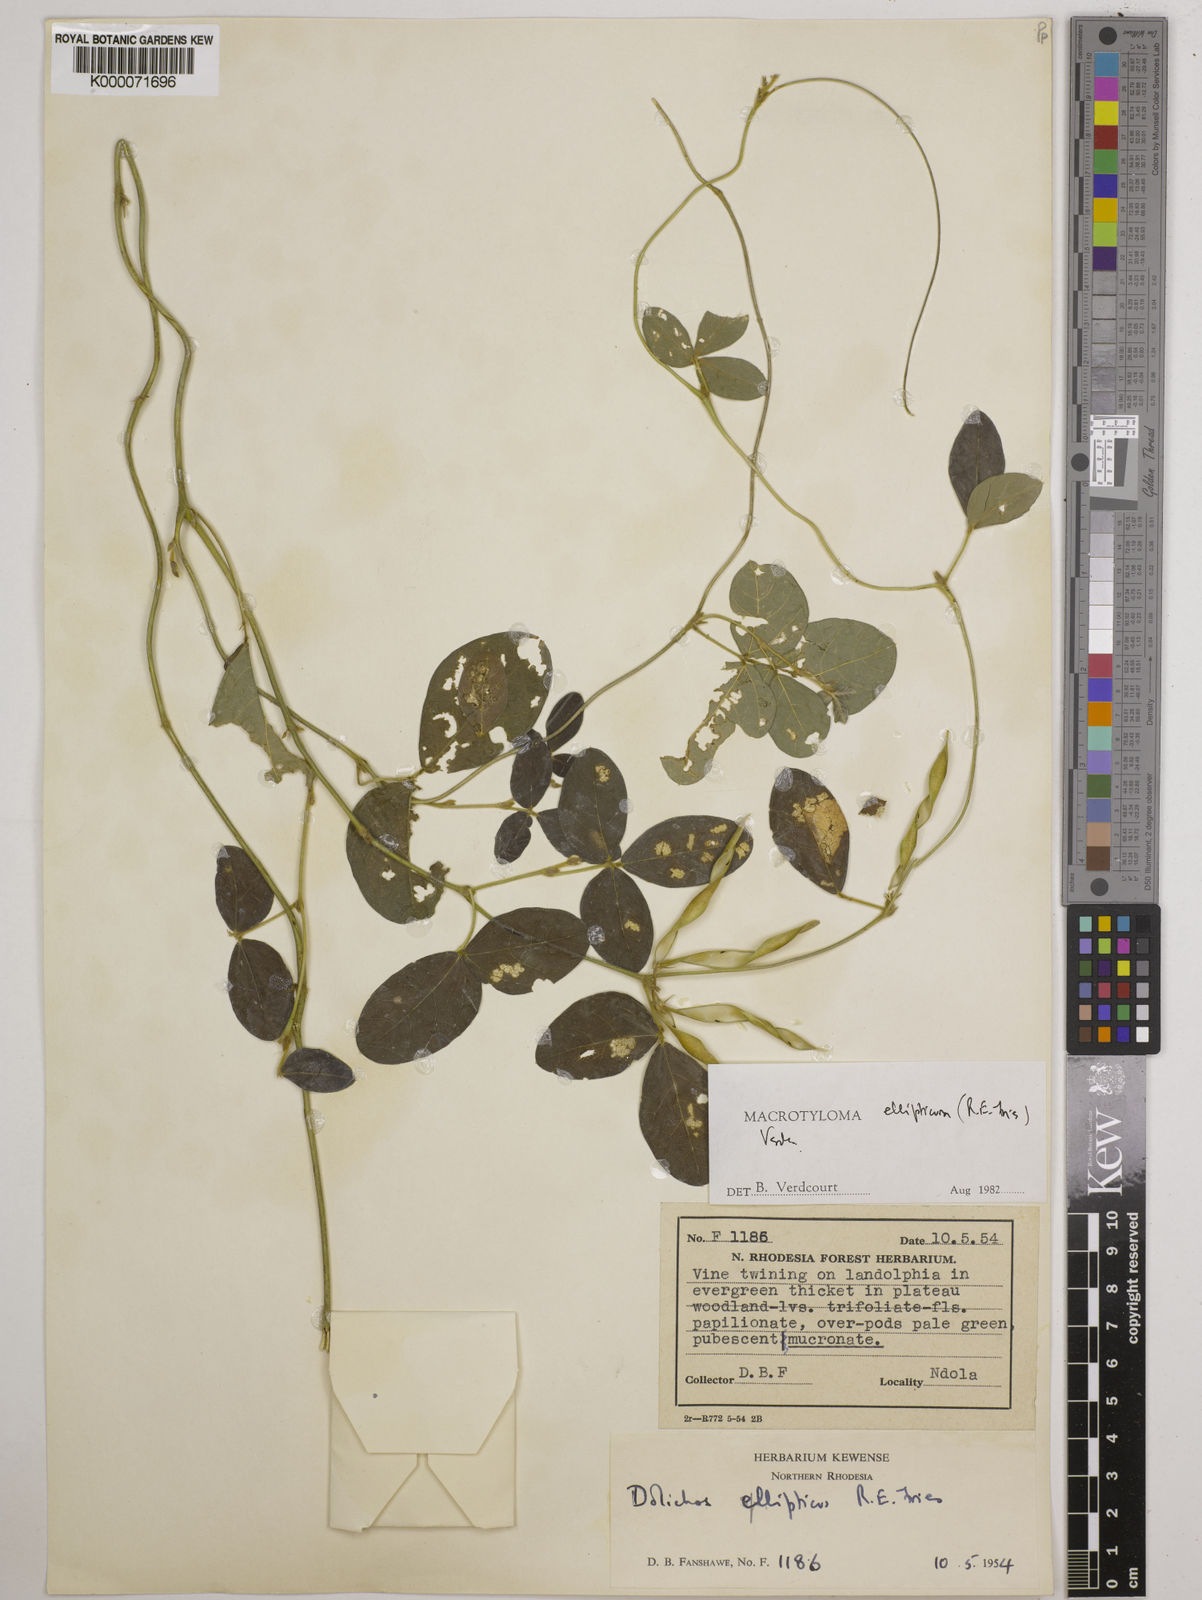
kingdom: Plantae
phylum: Tracheophyta
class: Magnoliopsida
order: Fabales
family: Fabaceae
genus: Macrotyloma
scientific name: Macrotyloma ellipticum
